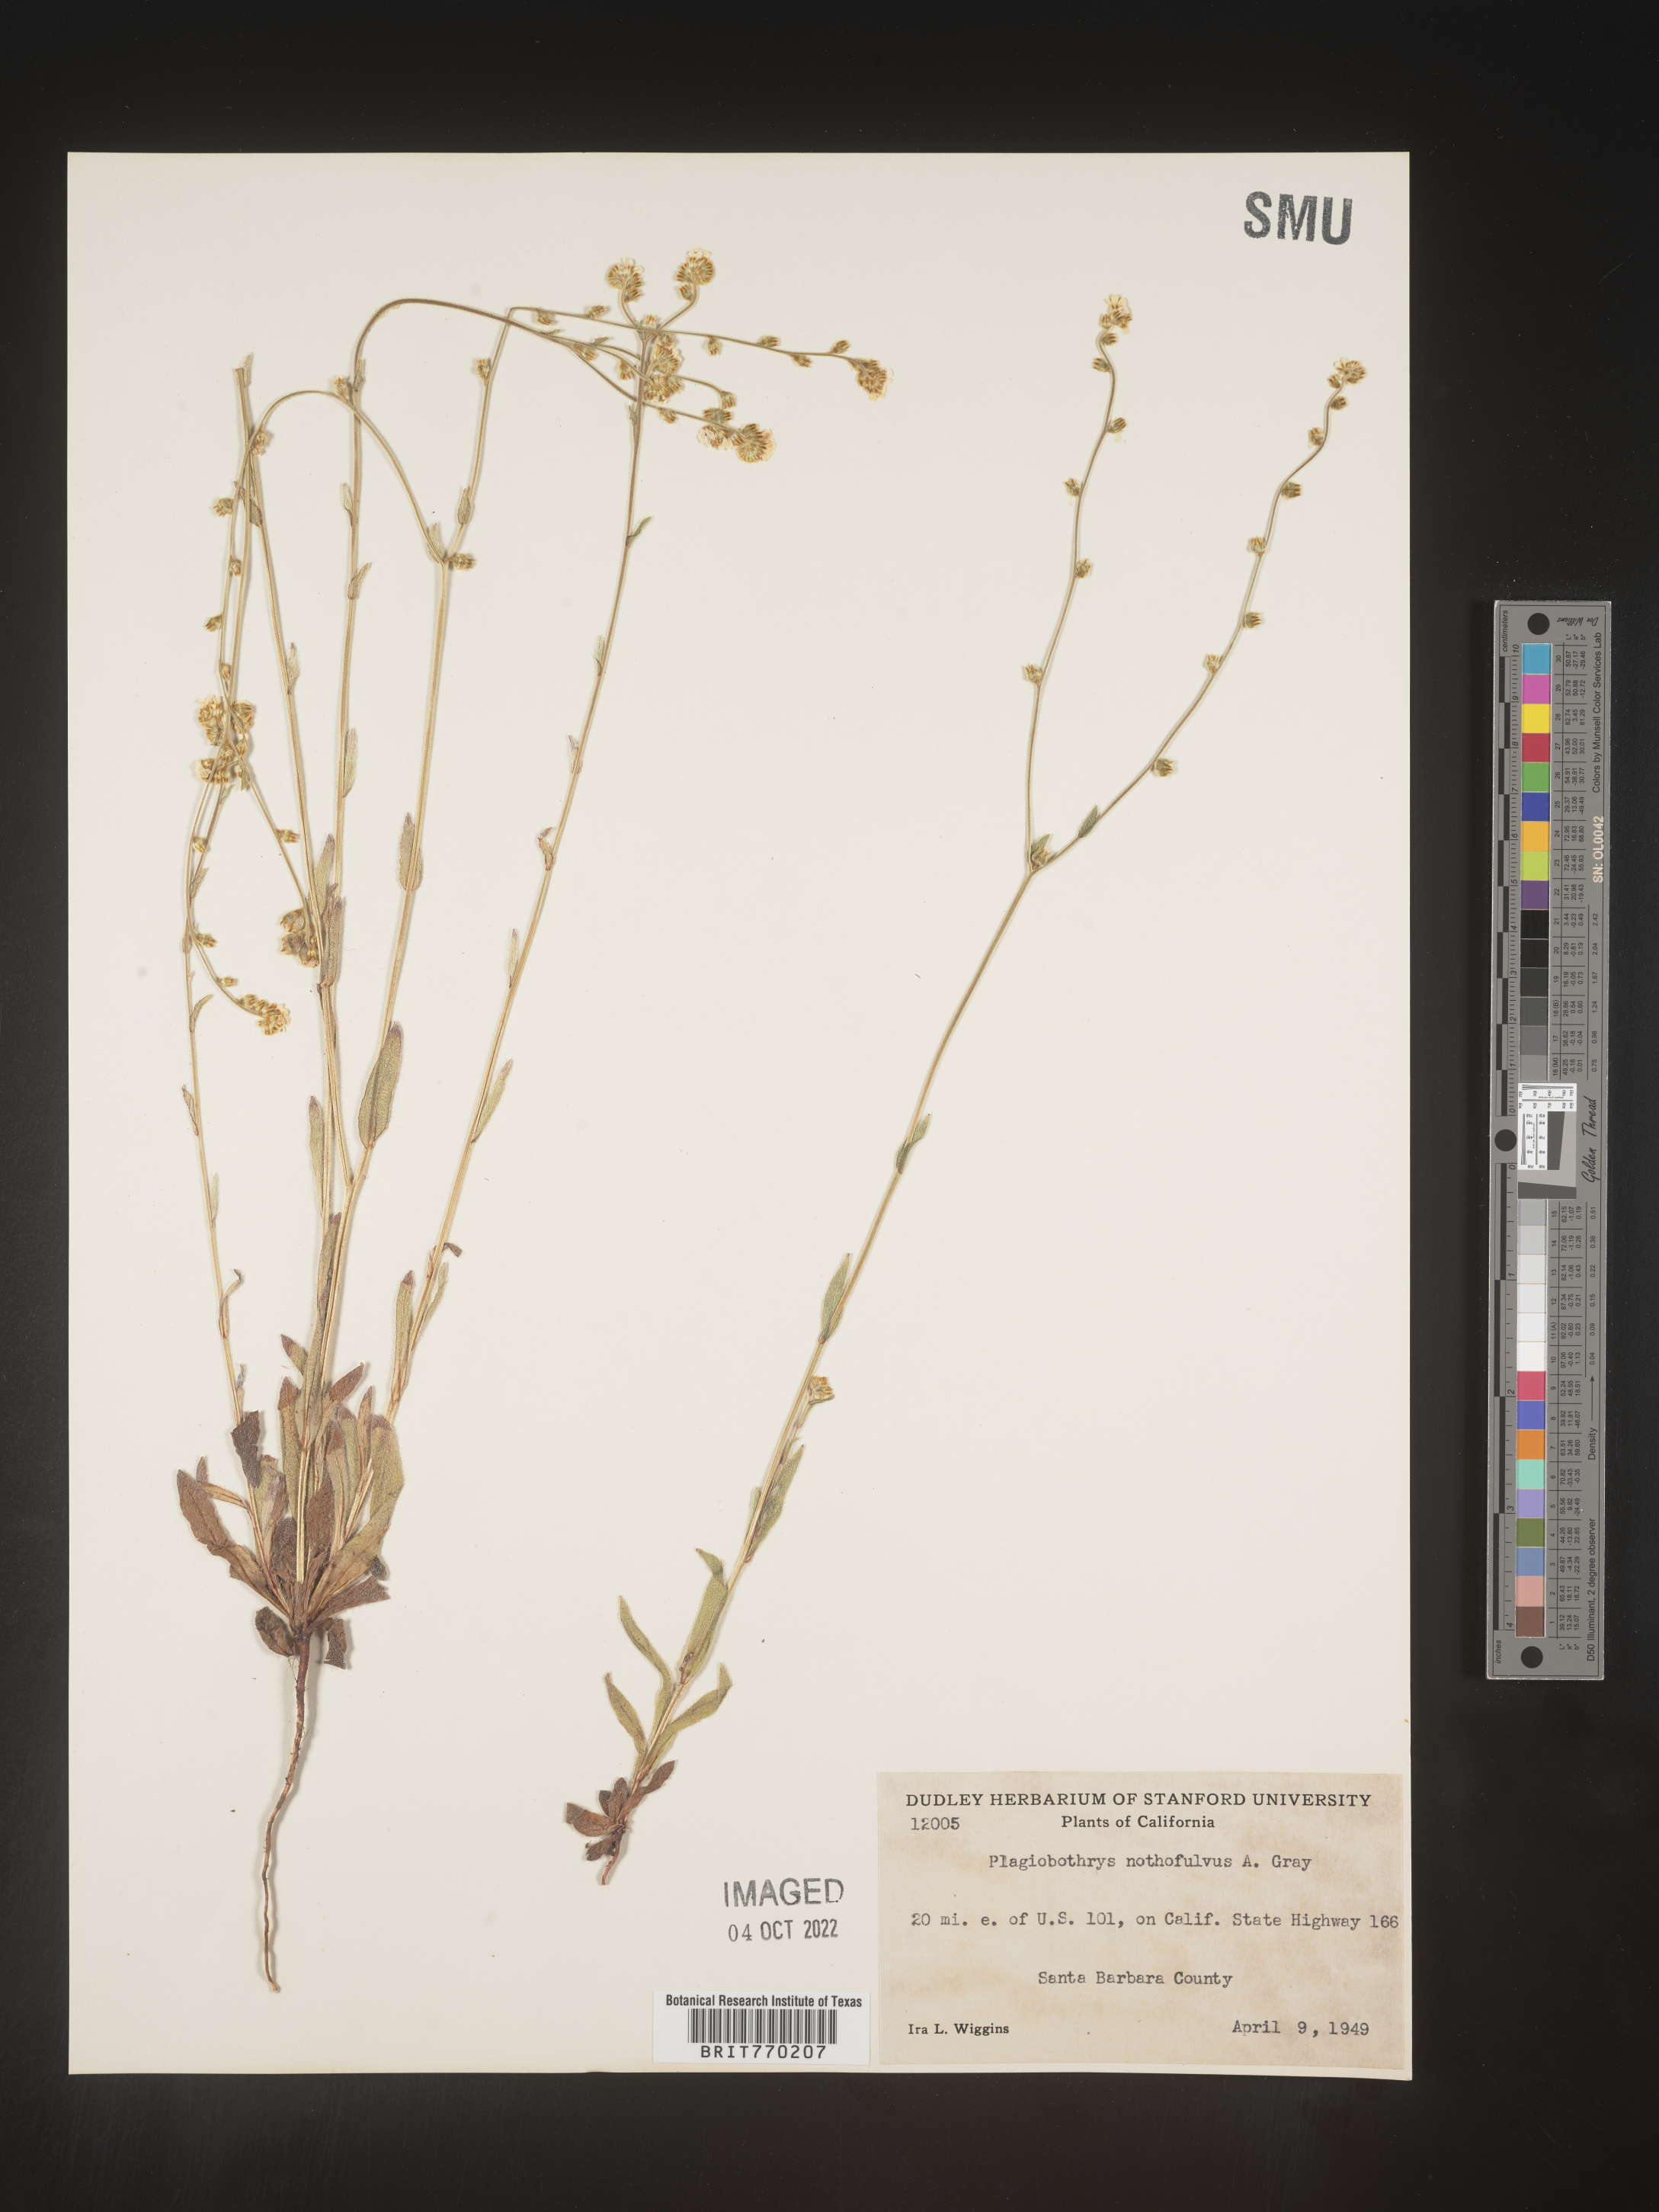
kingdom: Plantae
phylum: Tracheophyta
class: Magnoliopsida
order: Boraginales
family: Boraginaceae
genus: Plagiobothrys
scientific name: Plagiobothrys
